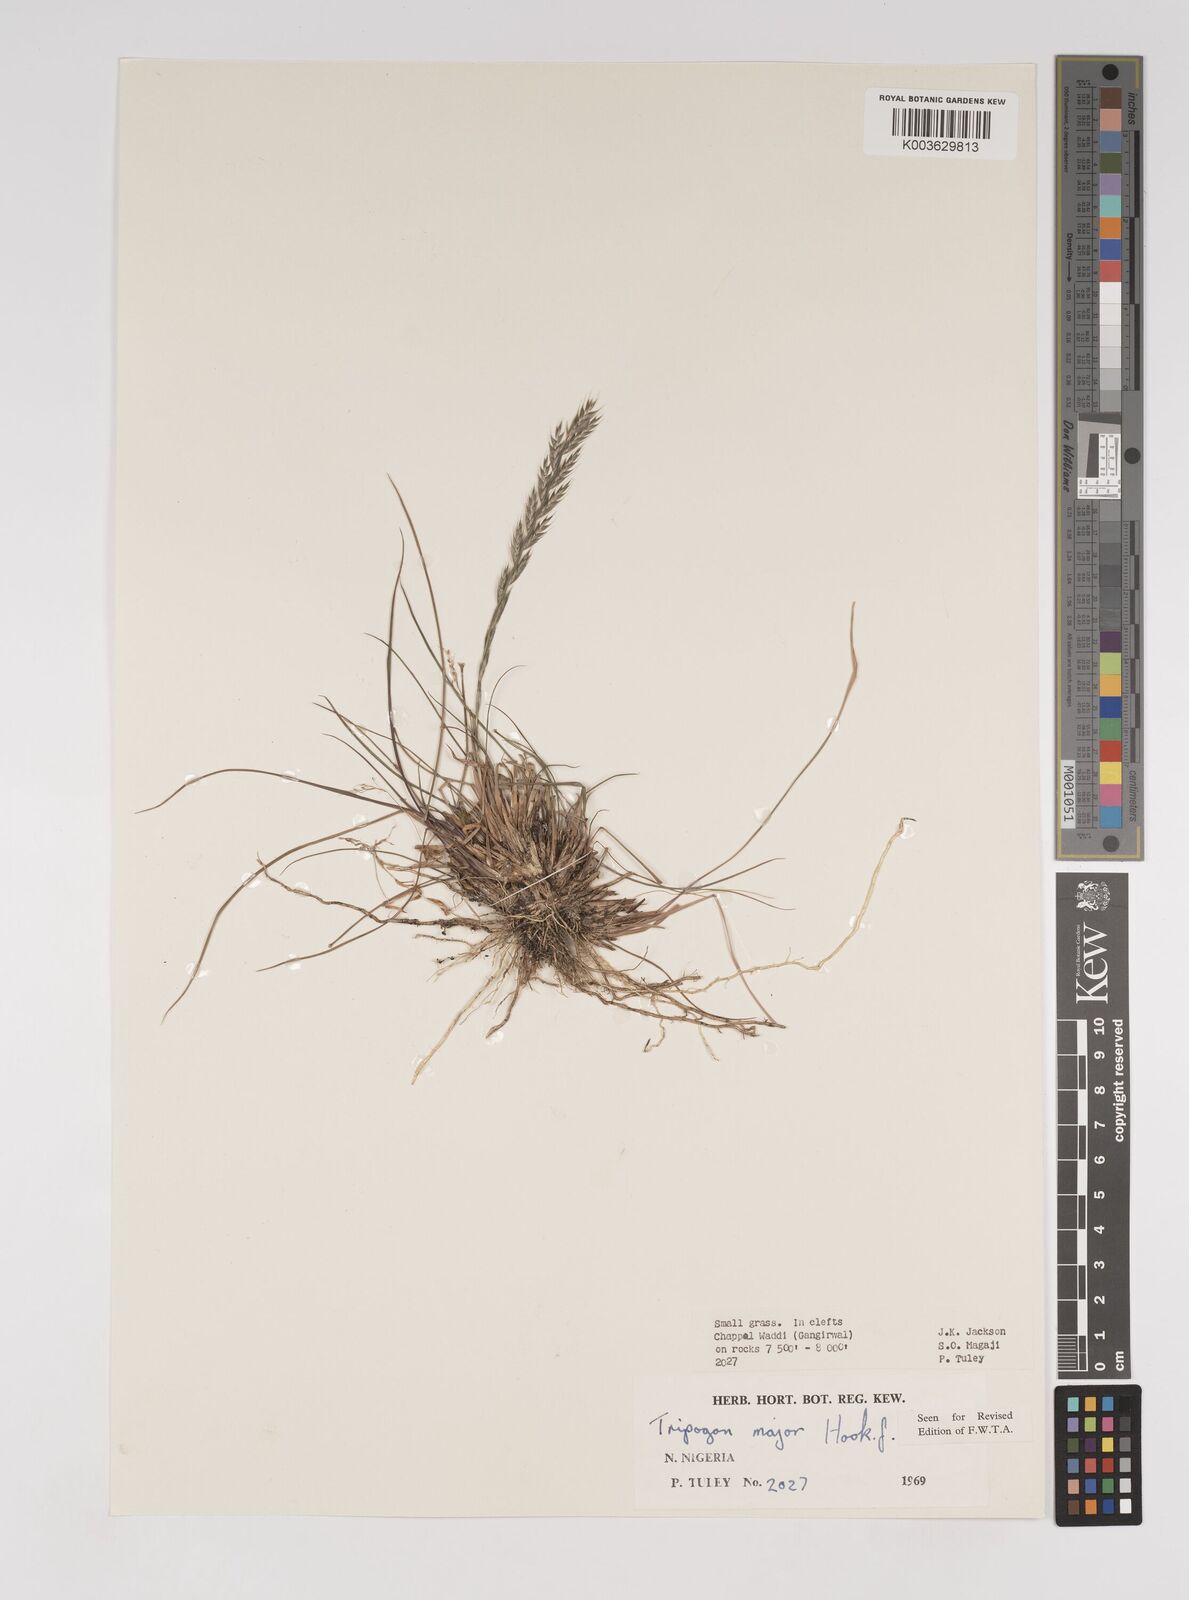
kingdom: Plantae
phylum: Tracheophyta
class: Liliopsida
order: Poales
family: Poaceae
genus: Tripogon
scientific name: Tripogon major
